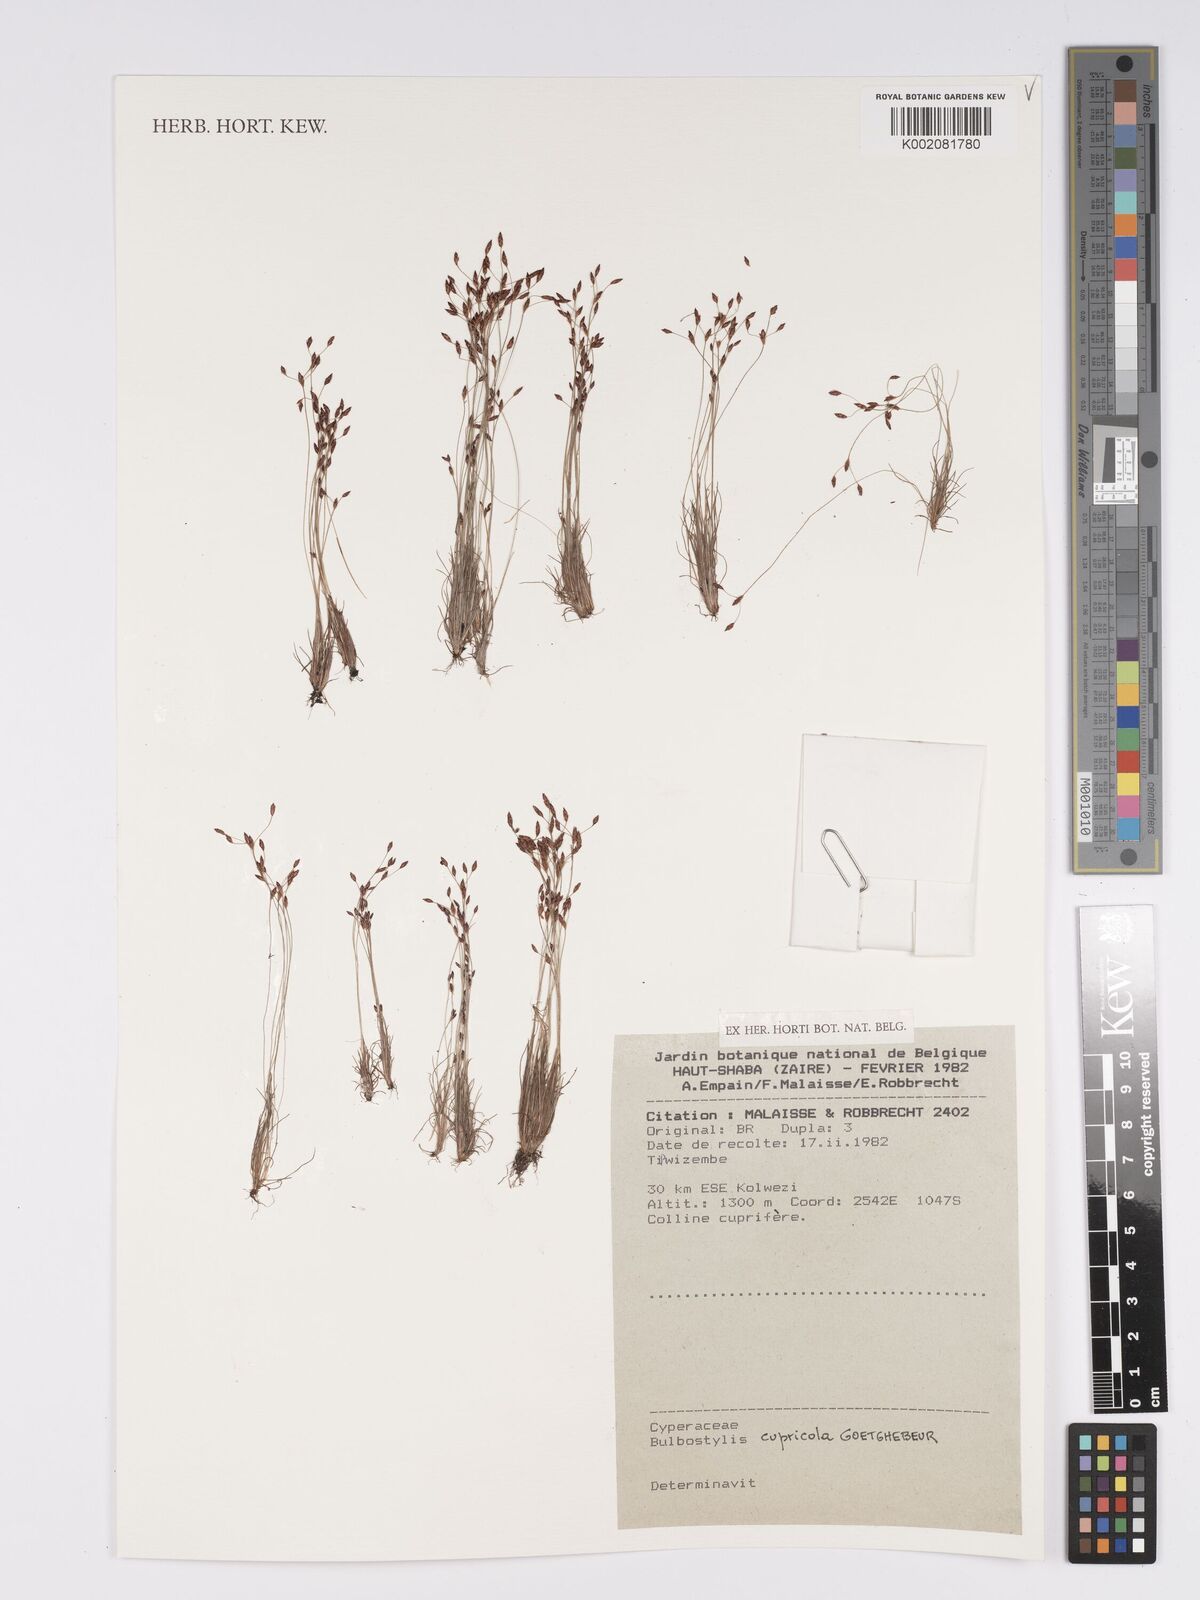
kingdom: Plantae
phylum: Tracheophyta
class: Liliopsida
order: Poales
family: Cyperaceae
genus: Bulbostylis
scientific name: Bulbostylis cupricola
